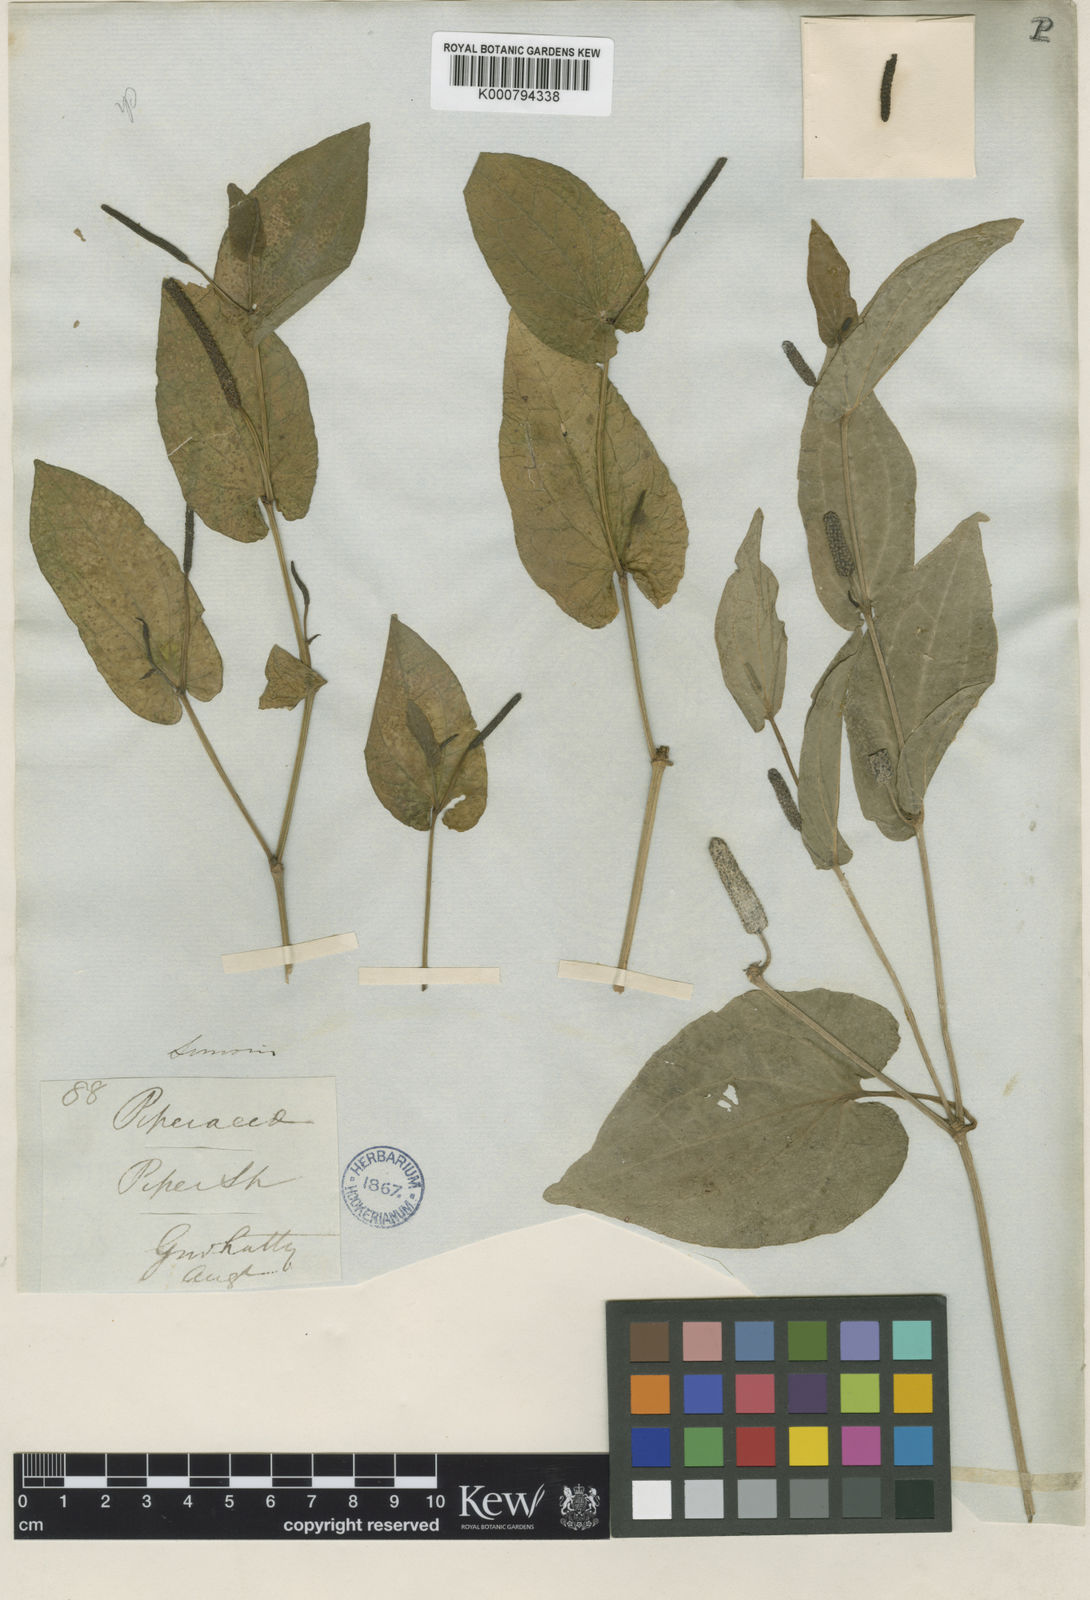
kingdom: Plantae
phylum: Tracheophyta
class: Magnoliopsida
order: Piperales
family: Piperaceae
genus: Piper
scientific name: Piper longum
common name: Long pepper
